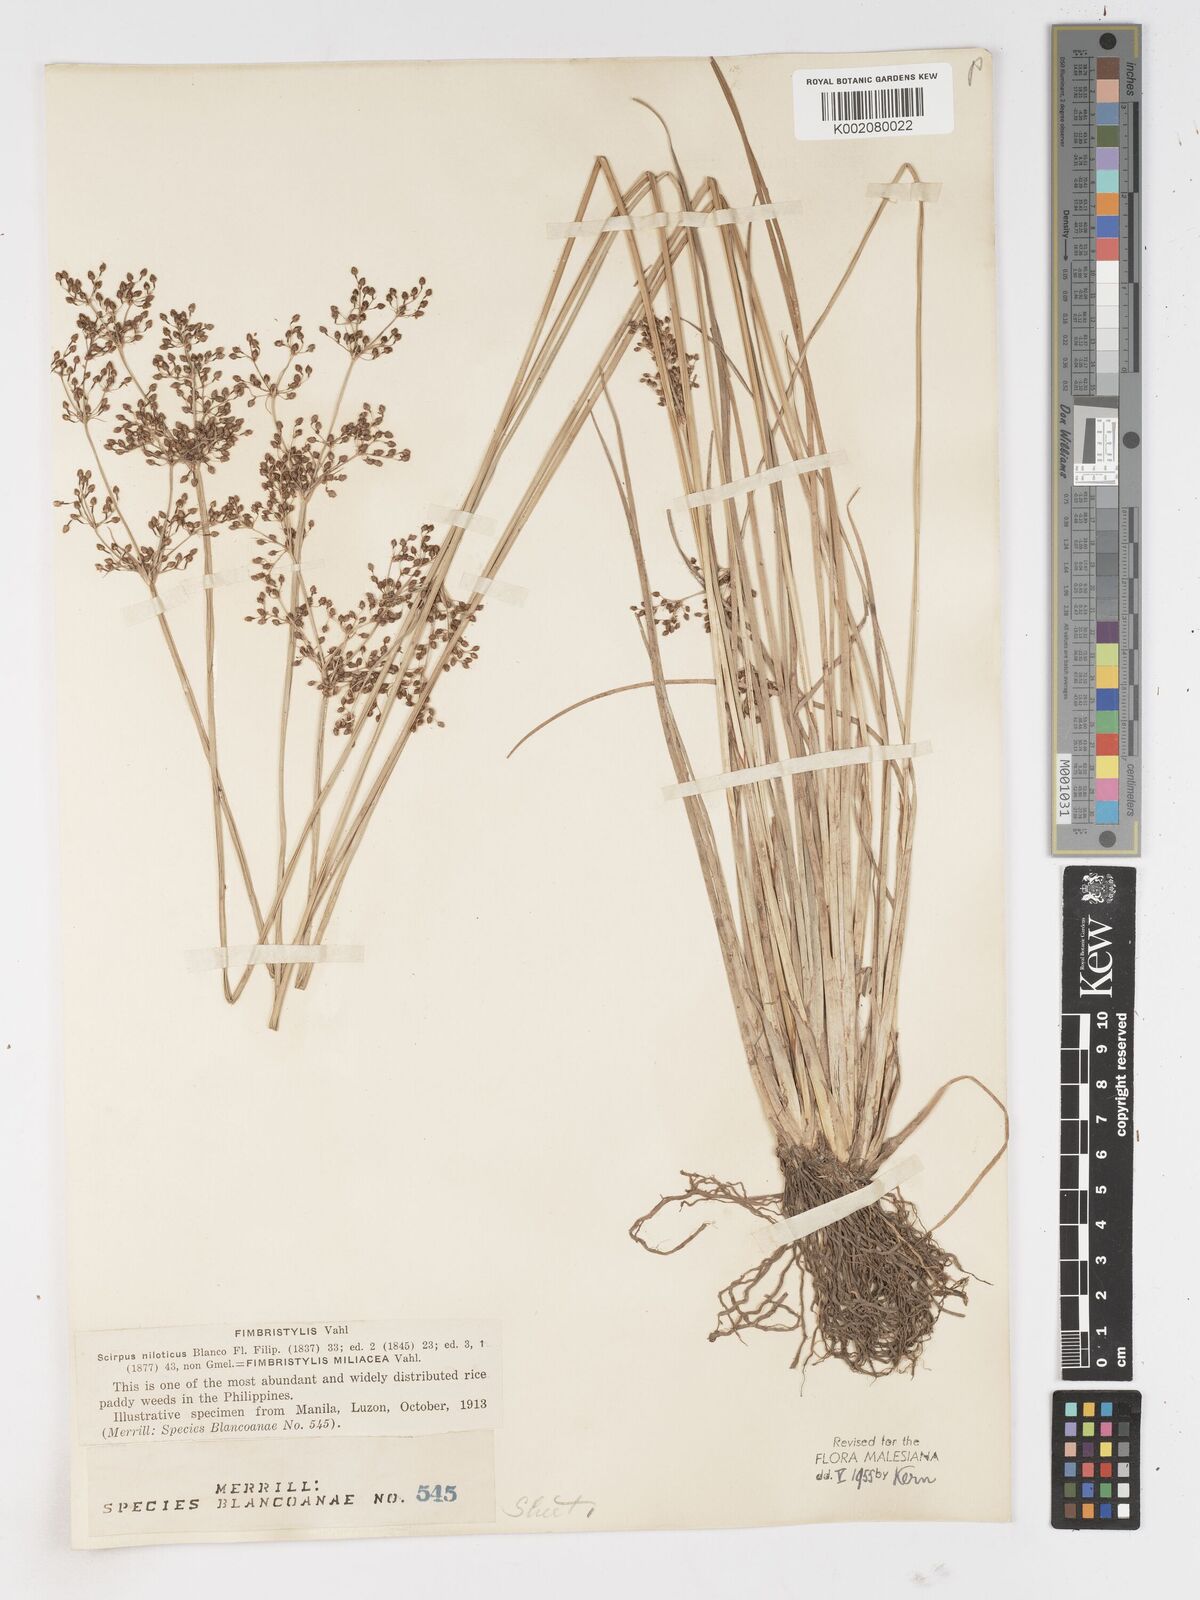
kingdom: Plantae
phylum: Tracheophyta
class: Liliopsida
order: Poales
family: Cyperaceae
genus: Fimbristylis
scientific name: Fimbristylis littoralis
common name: Fimbry
